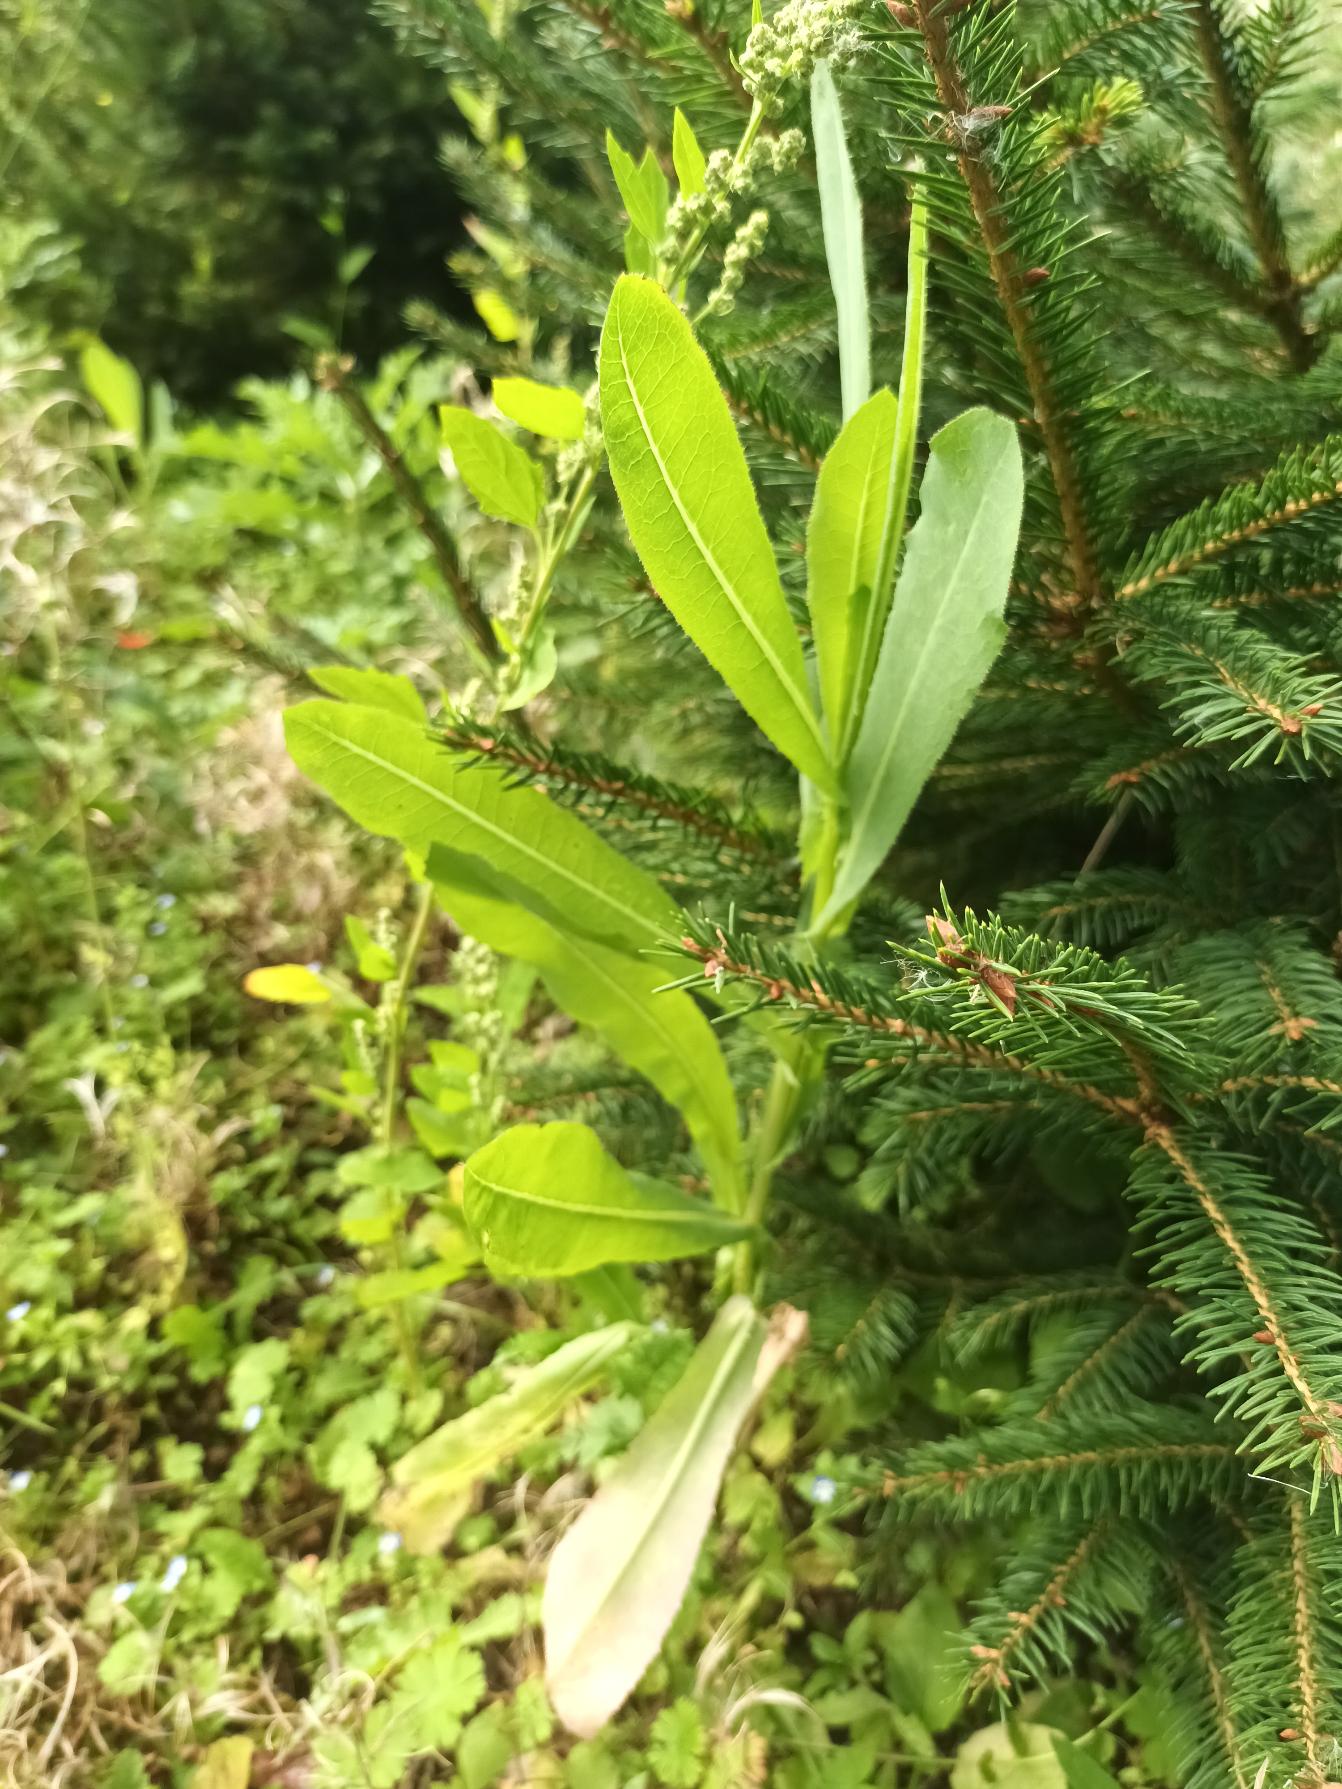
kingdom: Plantae
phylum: Tracheophyta
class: Magnoliopsida
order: Asterales
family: Asteraceae
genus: Lactuca
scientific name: Lactuca serriola
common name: Tornet salat
